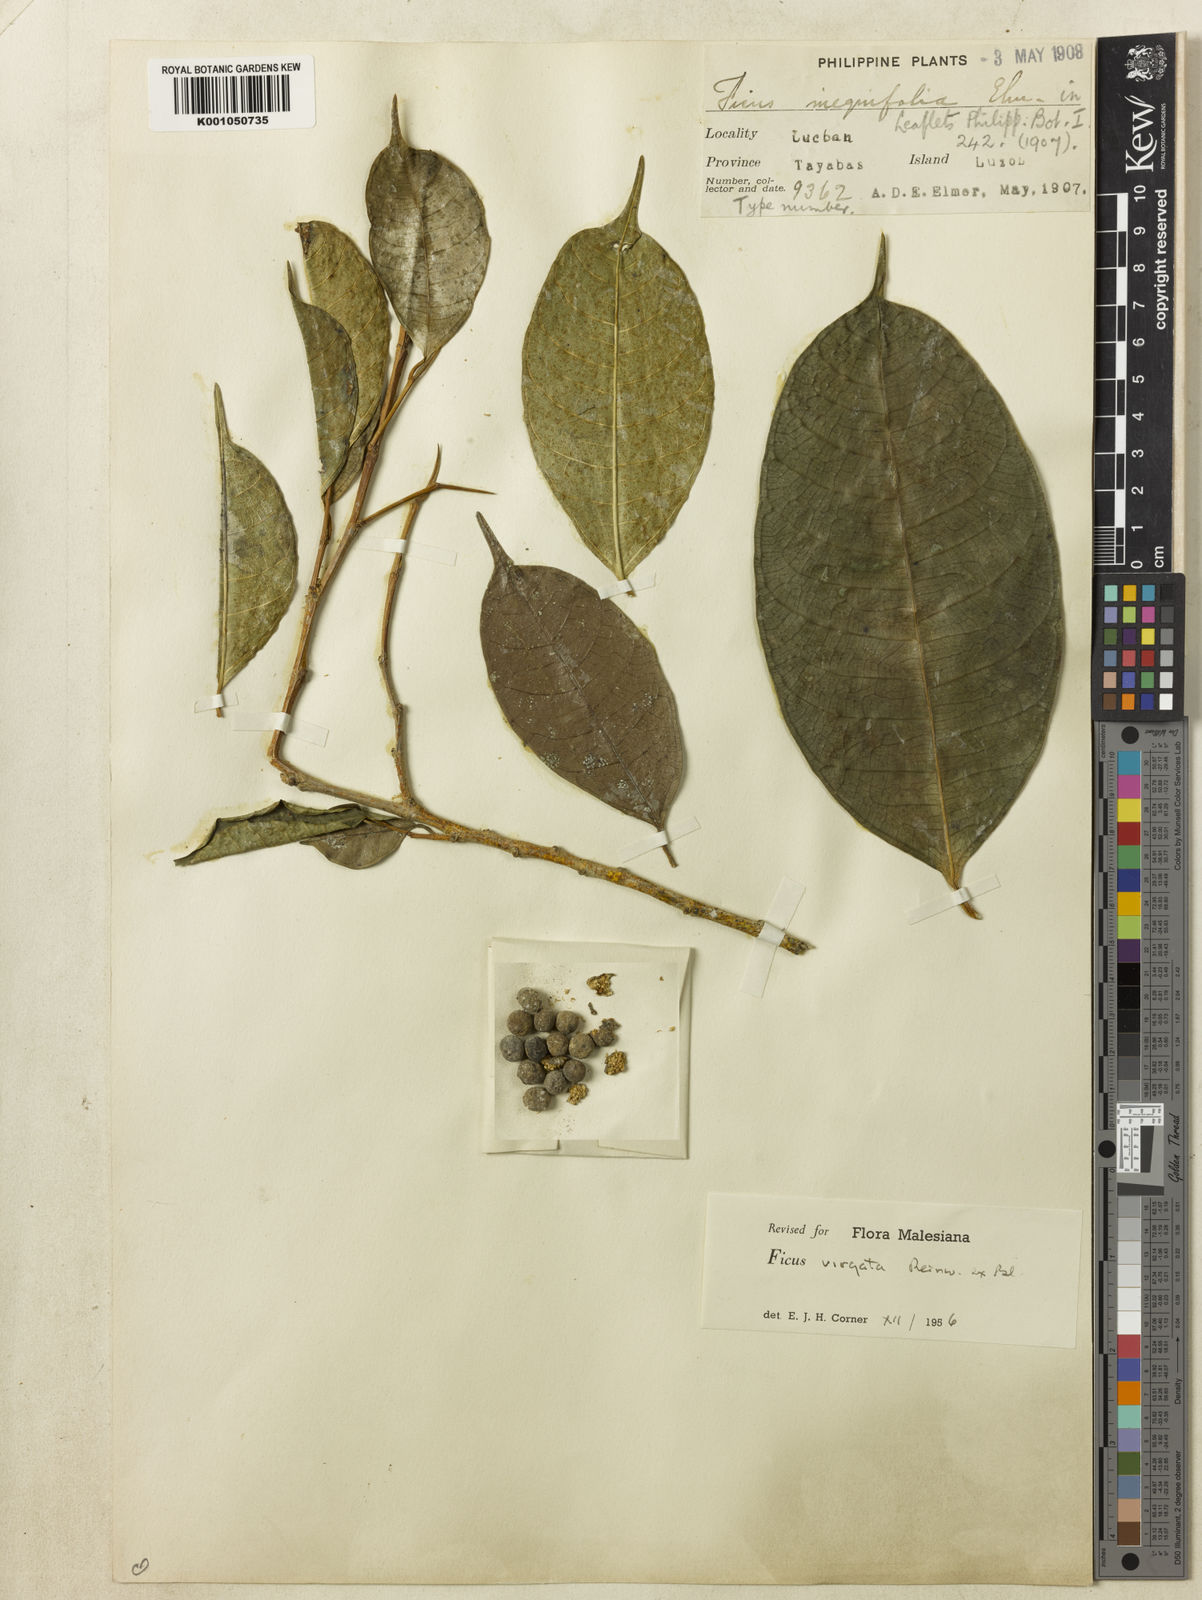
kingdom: Plantae
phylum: Tracheophyta
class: Magnoliopsida
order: Rosales
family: Moraceae
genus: Ficus
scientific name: Ficus
